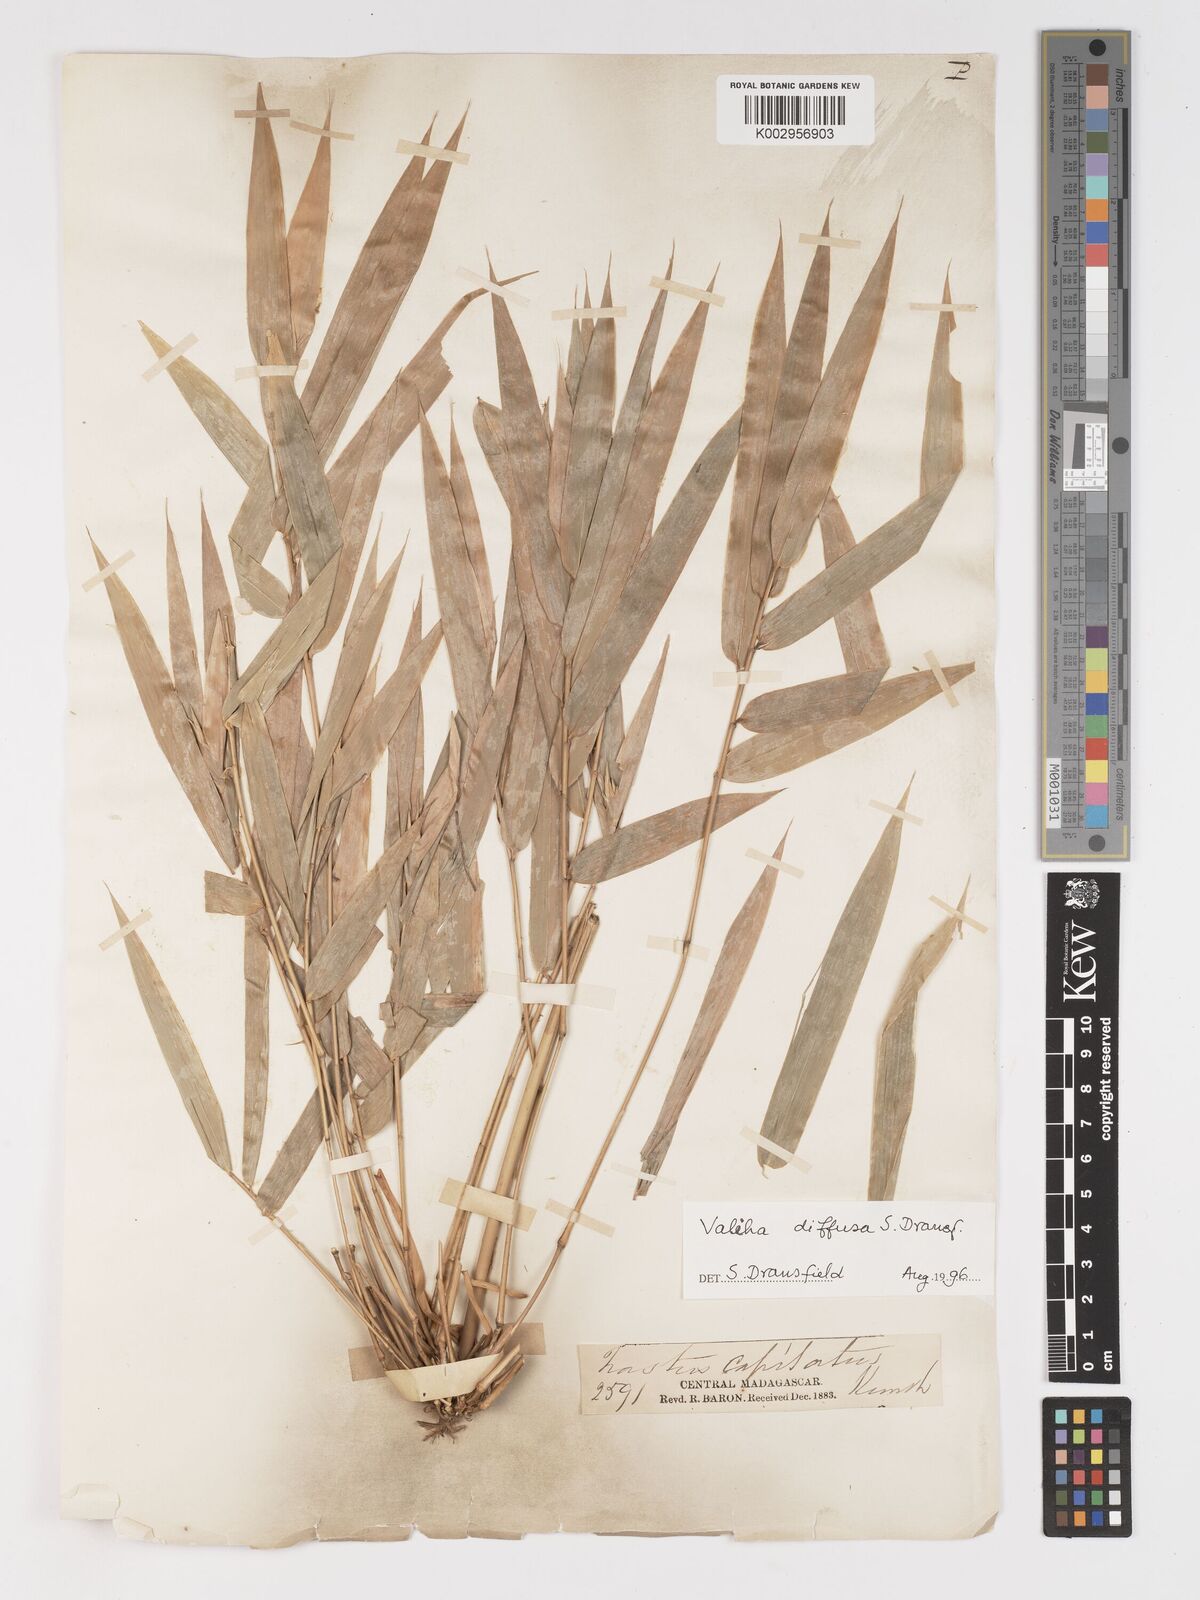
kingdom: Plantae
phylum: Tracheophyta
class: Liliopsida
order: Poales
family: Poaceae
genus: Valiha
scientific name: Valiha diffusa
